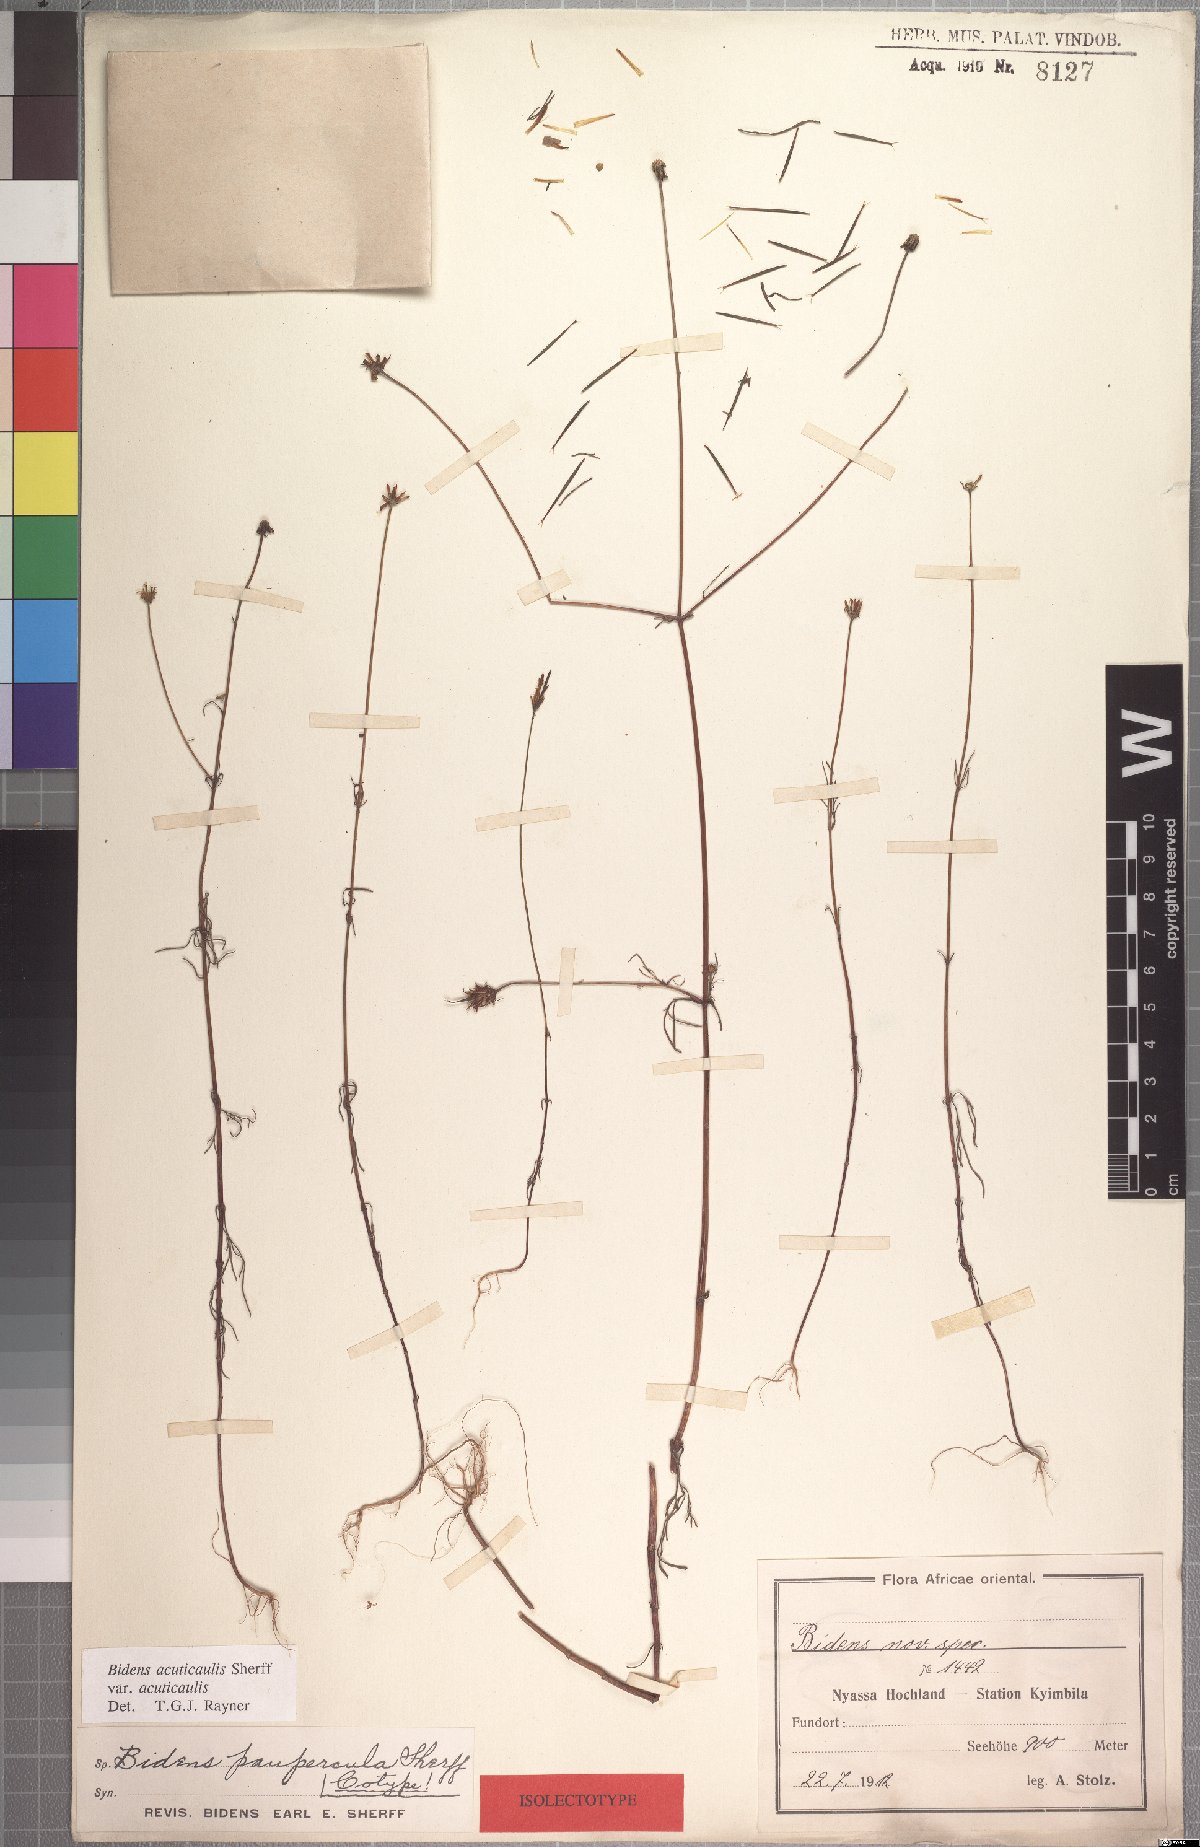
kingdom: Plantae
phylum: Tracheophyta
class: Magnoliopsida
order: Asterales
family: Asteraceae
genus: Bidens
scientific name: Bidens acuticaulis
